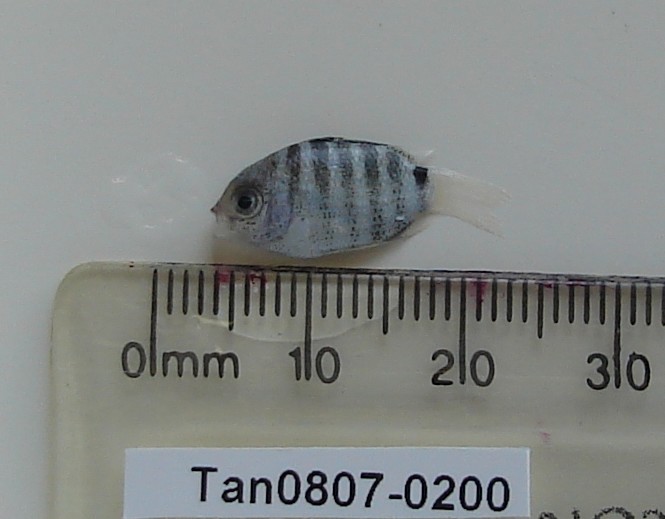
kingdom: Animalia
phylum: Chordata
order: Perciformes
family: Pomacentridae
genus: Abudefduf
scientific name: Abudefduf sordidus
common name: Blackspot sergeant
